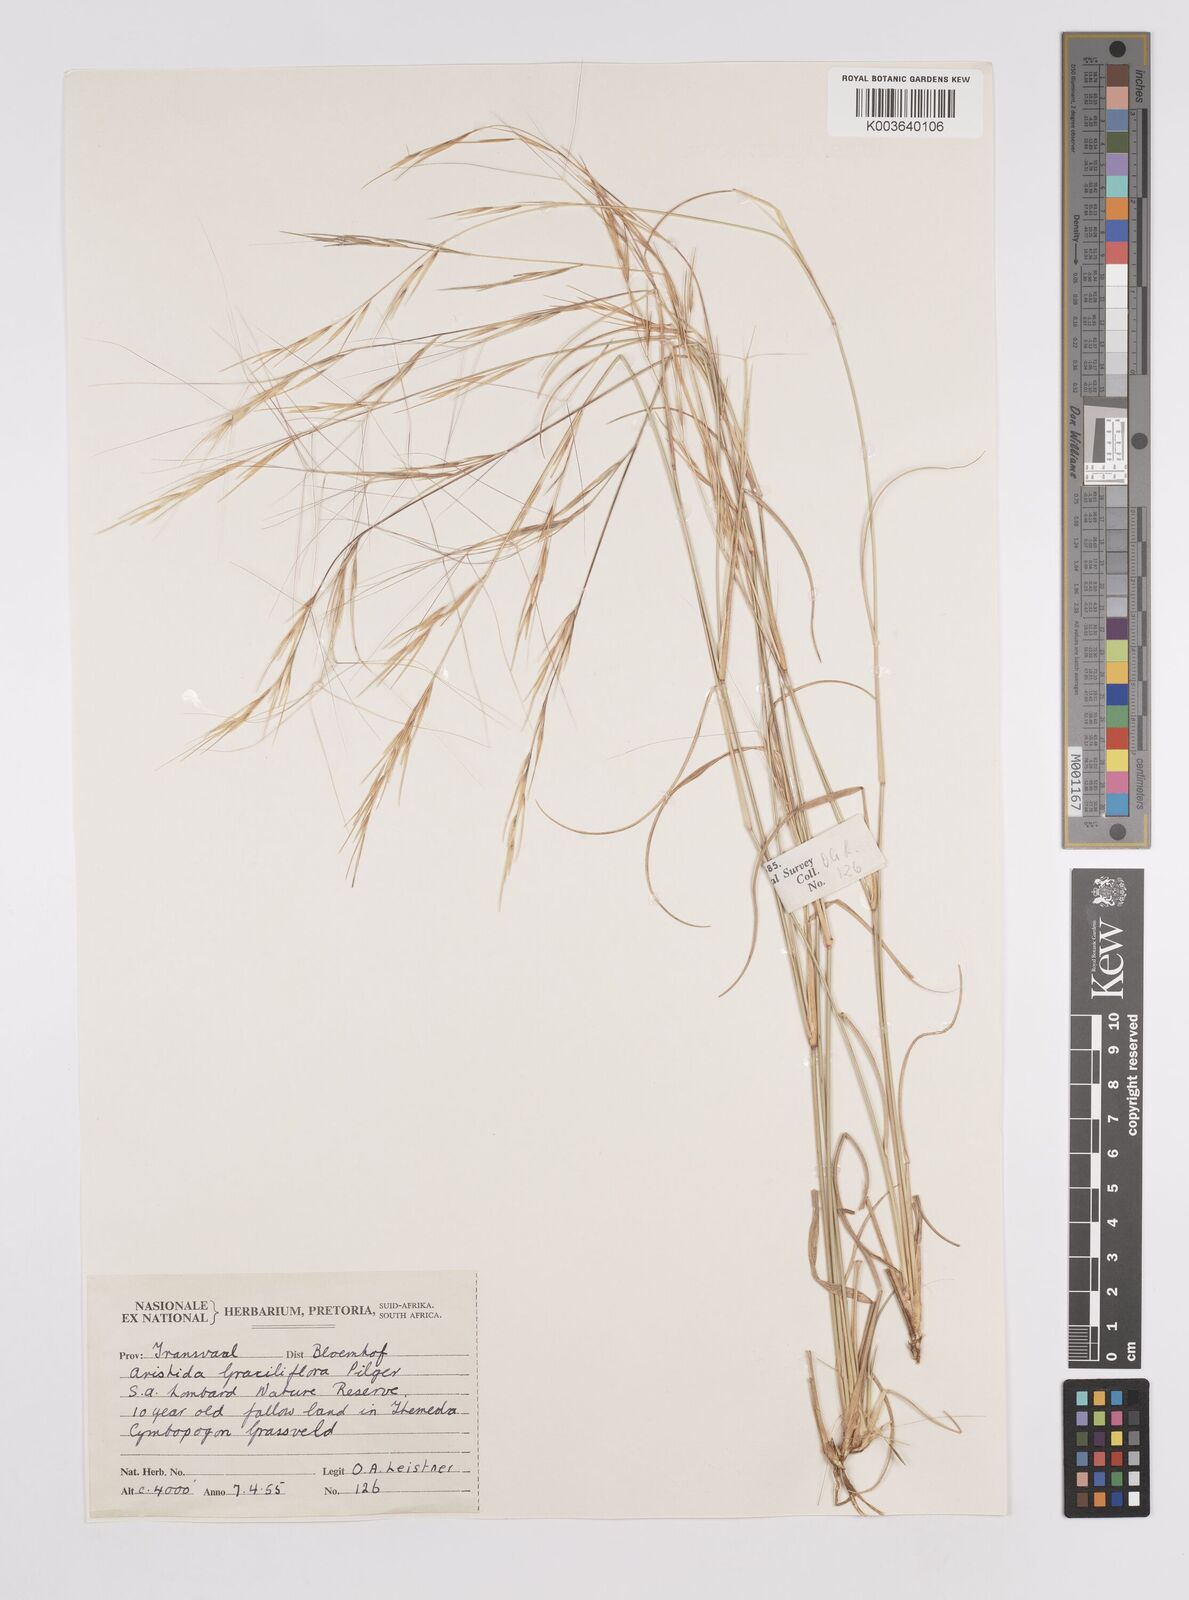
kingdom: Plantae
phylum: Tracheophyta
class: Liliopsida
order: Poales
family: Poaceae
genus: Aristida
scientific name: Aristida stipitata
